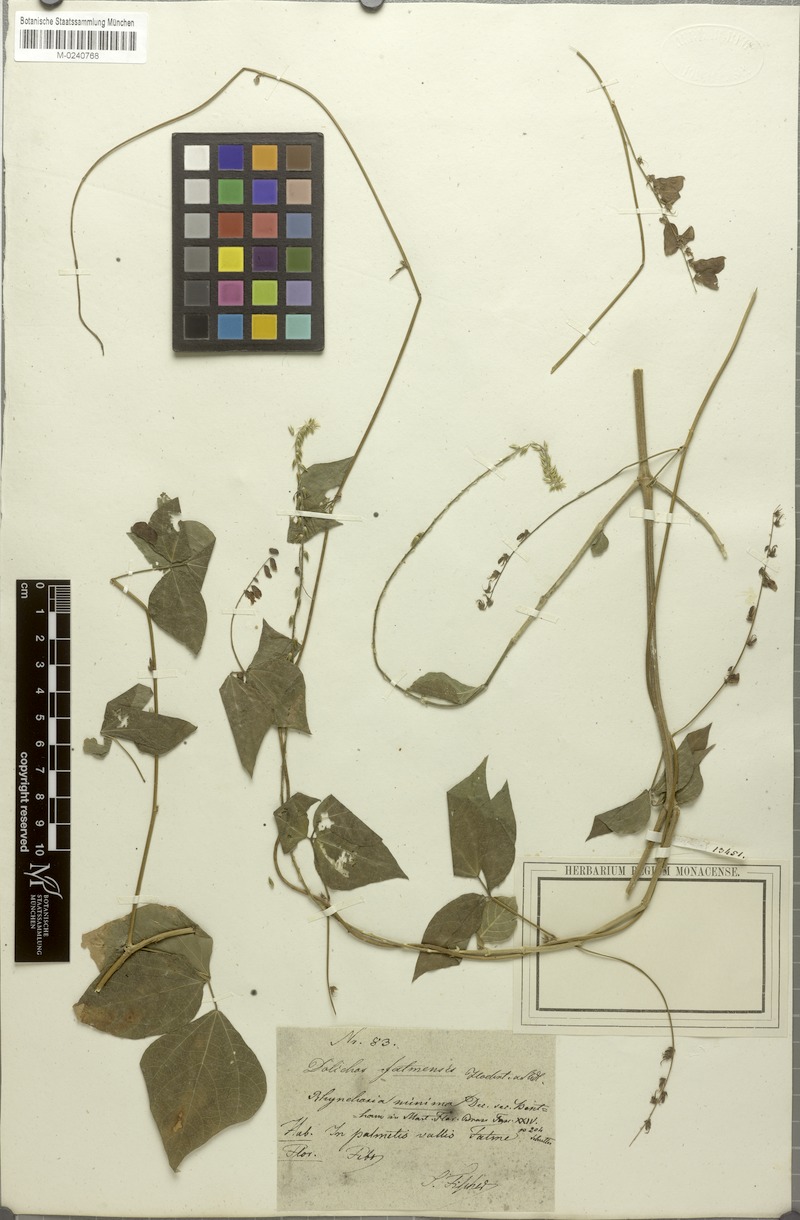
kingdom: Plantae
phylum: Tracheophyta
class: Magnoliopsida
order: Fabales
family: Fabaceae
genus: Rhynchosia
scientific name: Rhynchosia minima
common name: Least snoutbean
